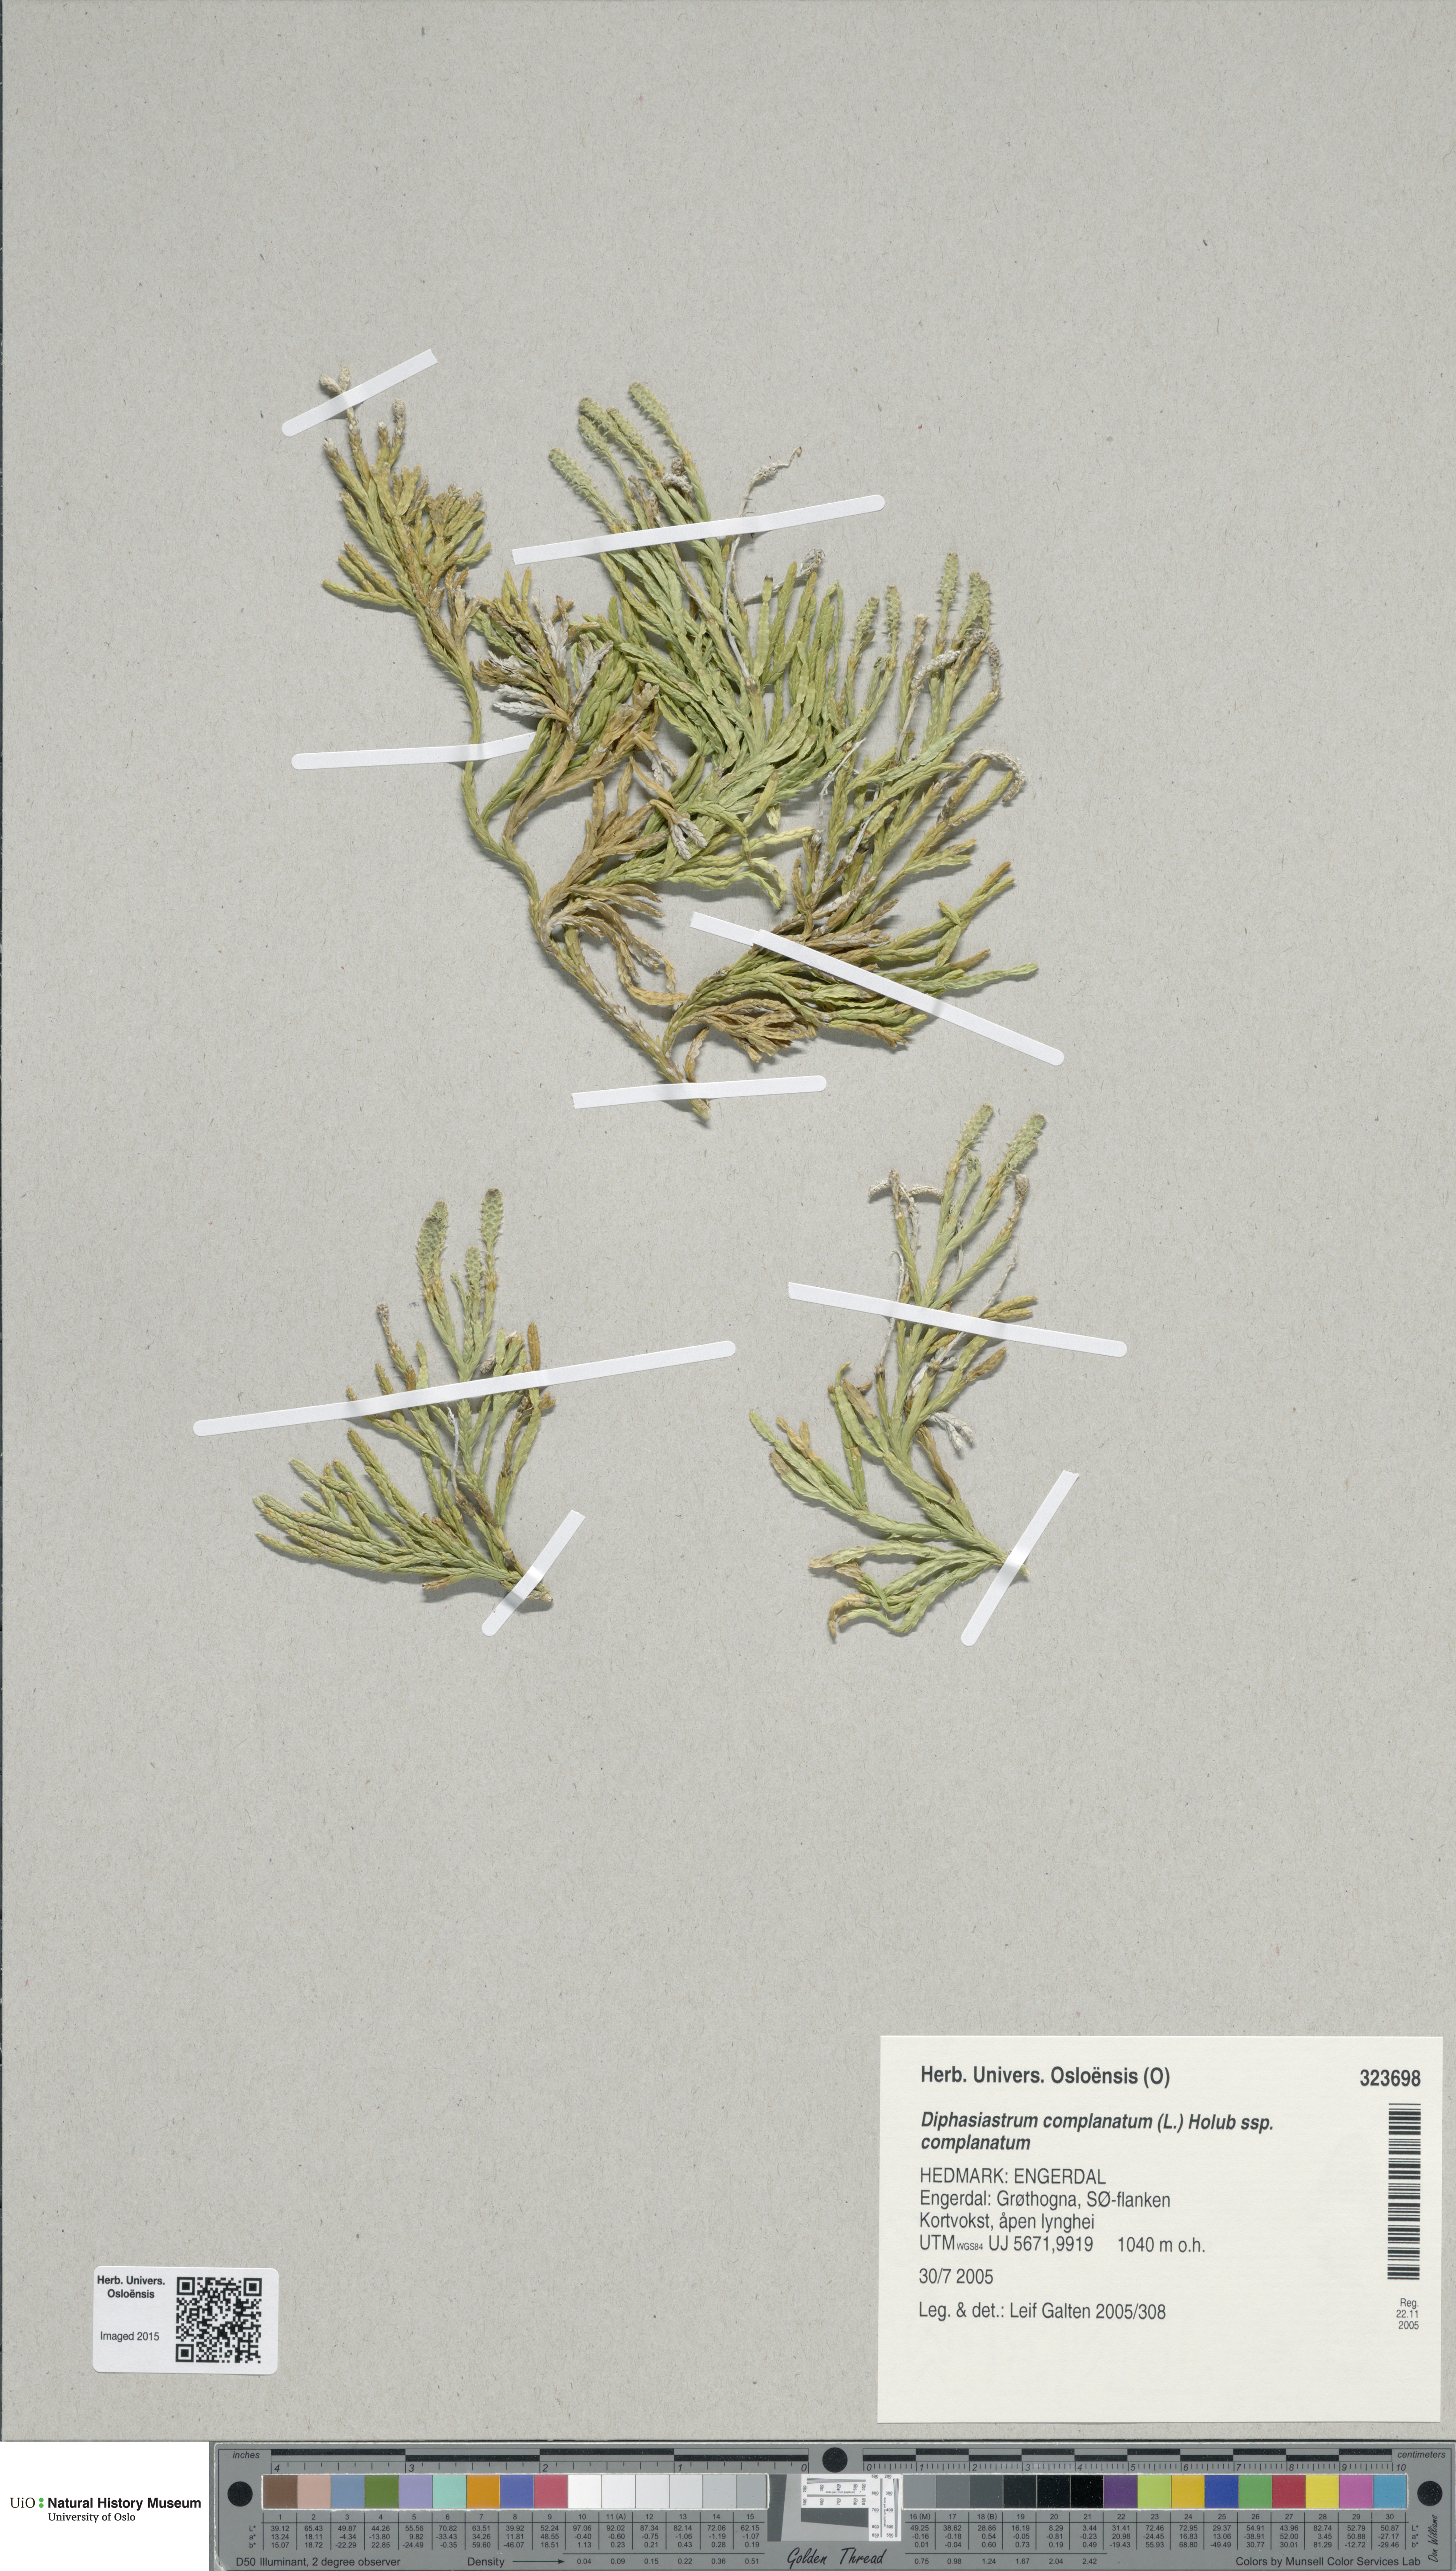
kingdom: Plantae
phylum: Tracheophyta
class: Lycopodiopsida
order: Lycopodiales
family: Lycopodiaceae
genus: Diphasiastrum
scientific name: Diphasiastrum complanatum
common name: Northern running-pine
